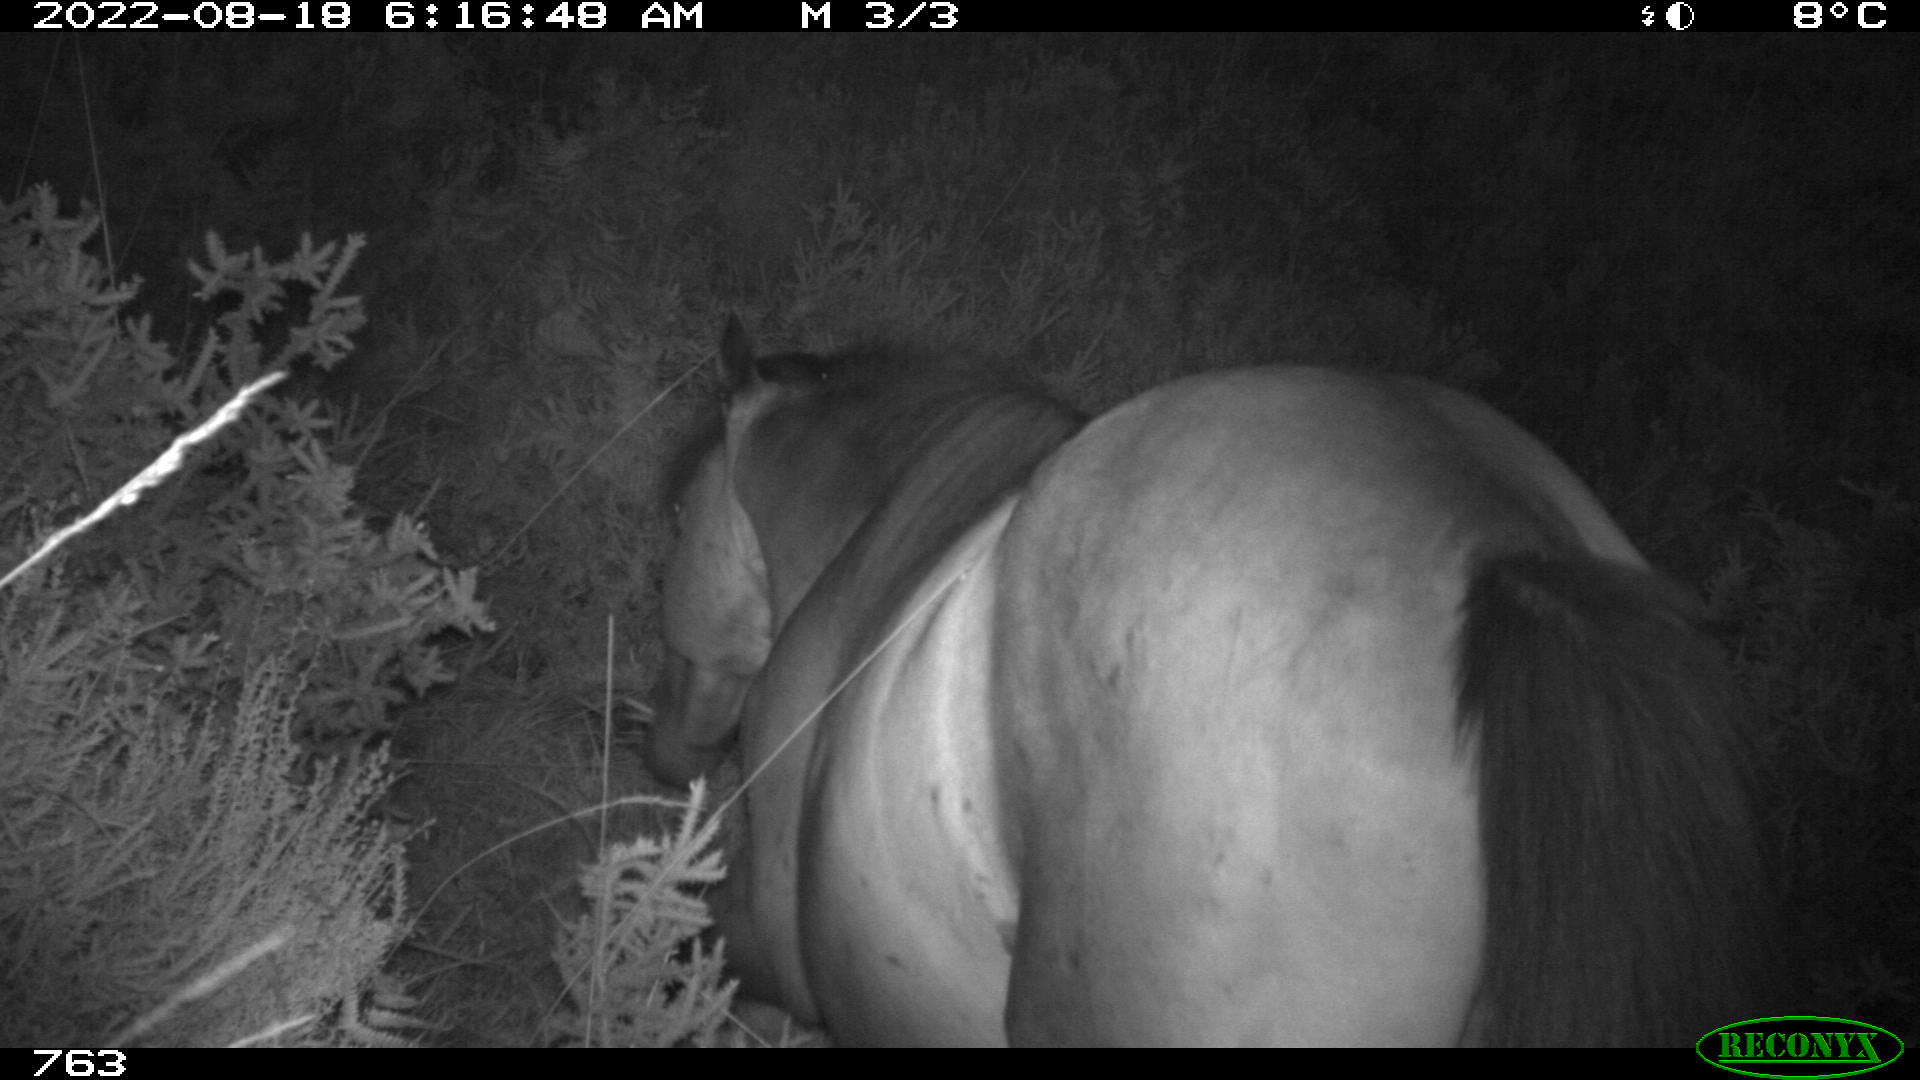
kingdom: Animalia
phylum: Chordata
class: Mammalia
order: Perissodactyla
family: Equidae
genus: Equus
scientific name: Equus caballus
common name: Horse
